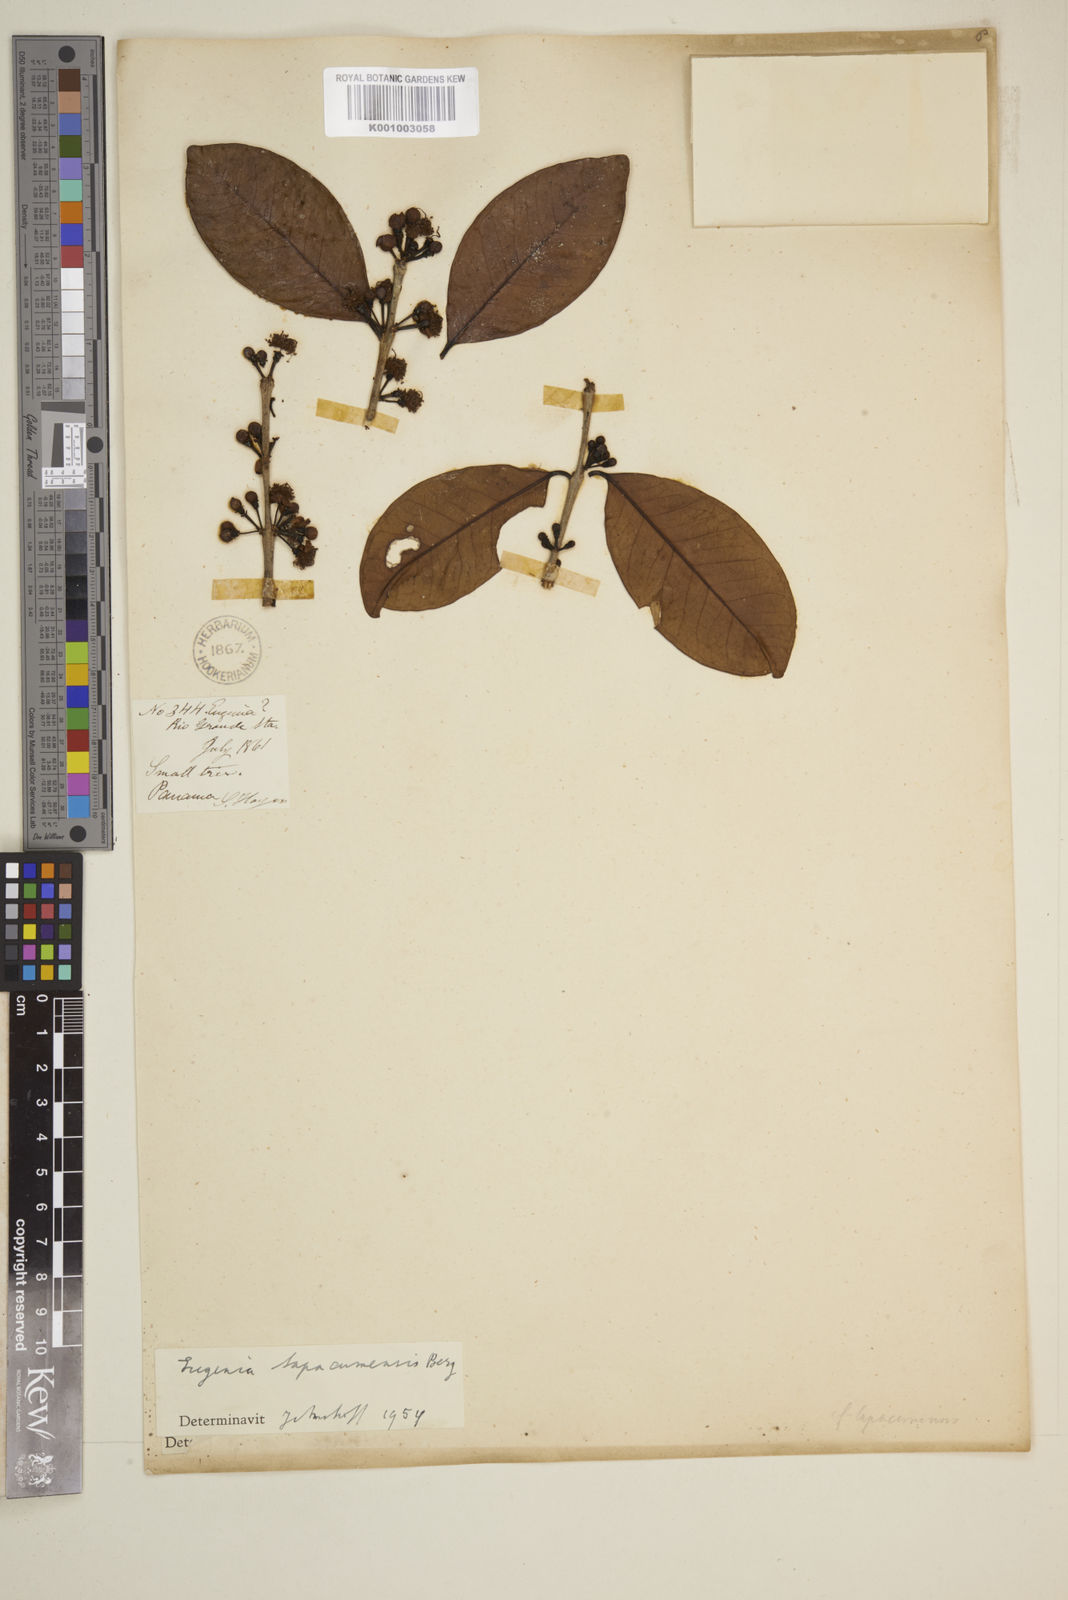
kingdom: Plantae
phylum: Tracheophyta
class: Magnoliopsida
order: Myrtales
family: Myrtaceae
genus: Eugenia
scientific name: Eugenia tapacumensis
